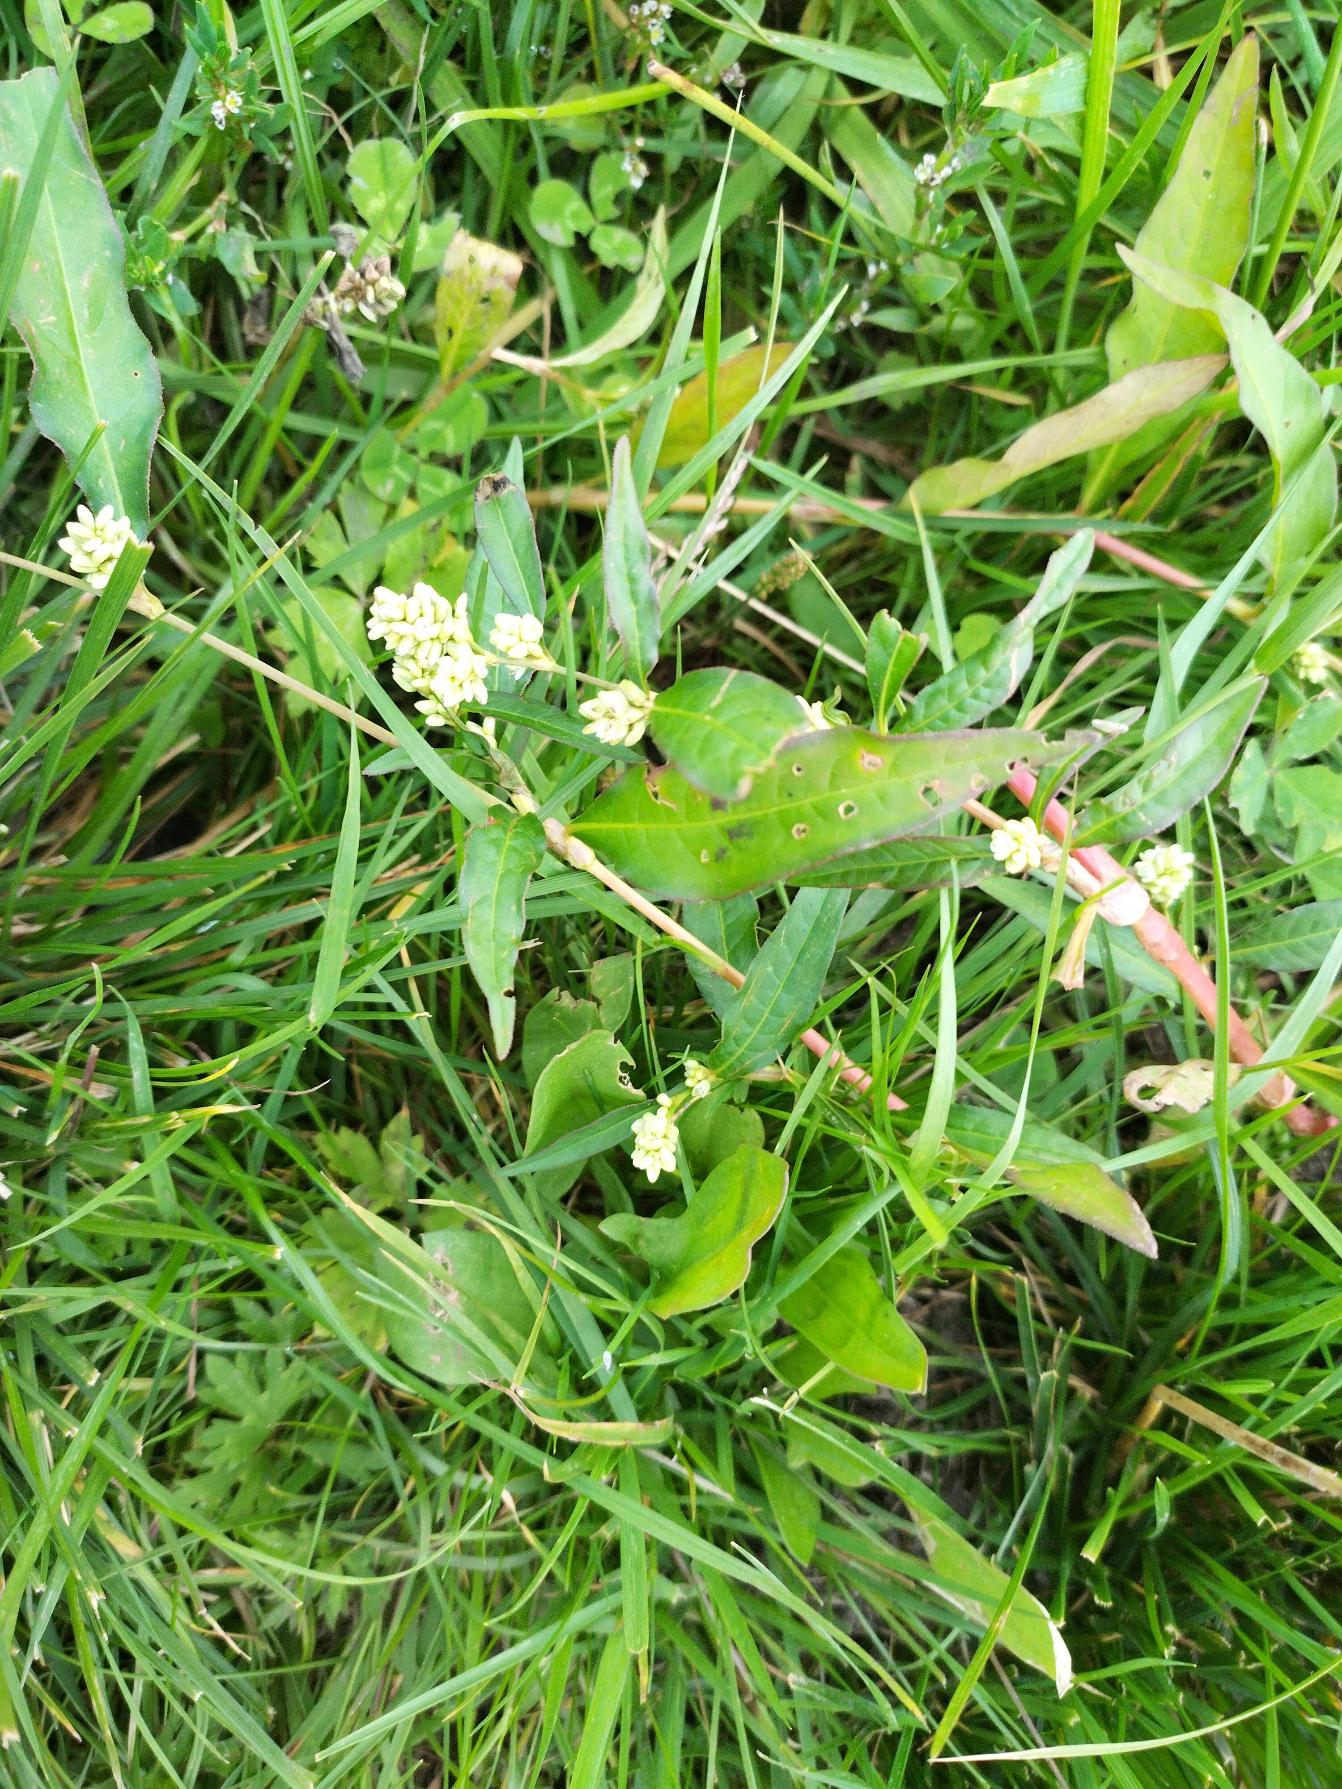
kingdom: Plantae
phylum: Tracheophyta
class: Magnoliopsida
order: Caryophyllales
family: Polygonaceae
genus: Persicaria
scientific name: Persicaria lapathifolia
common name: Bleg pileurt
